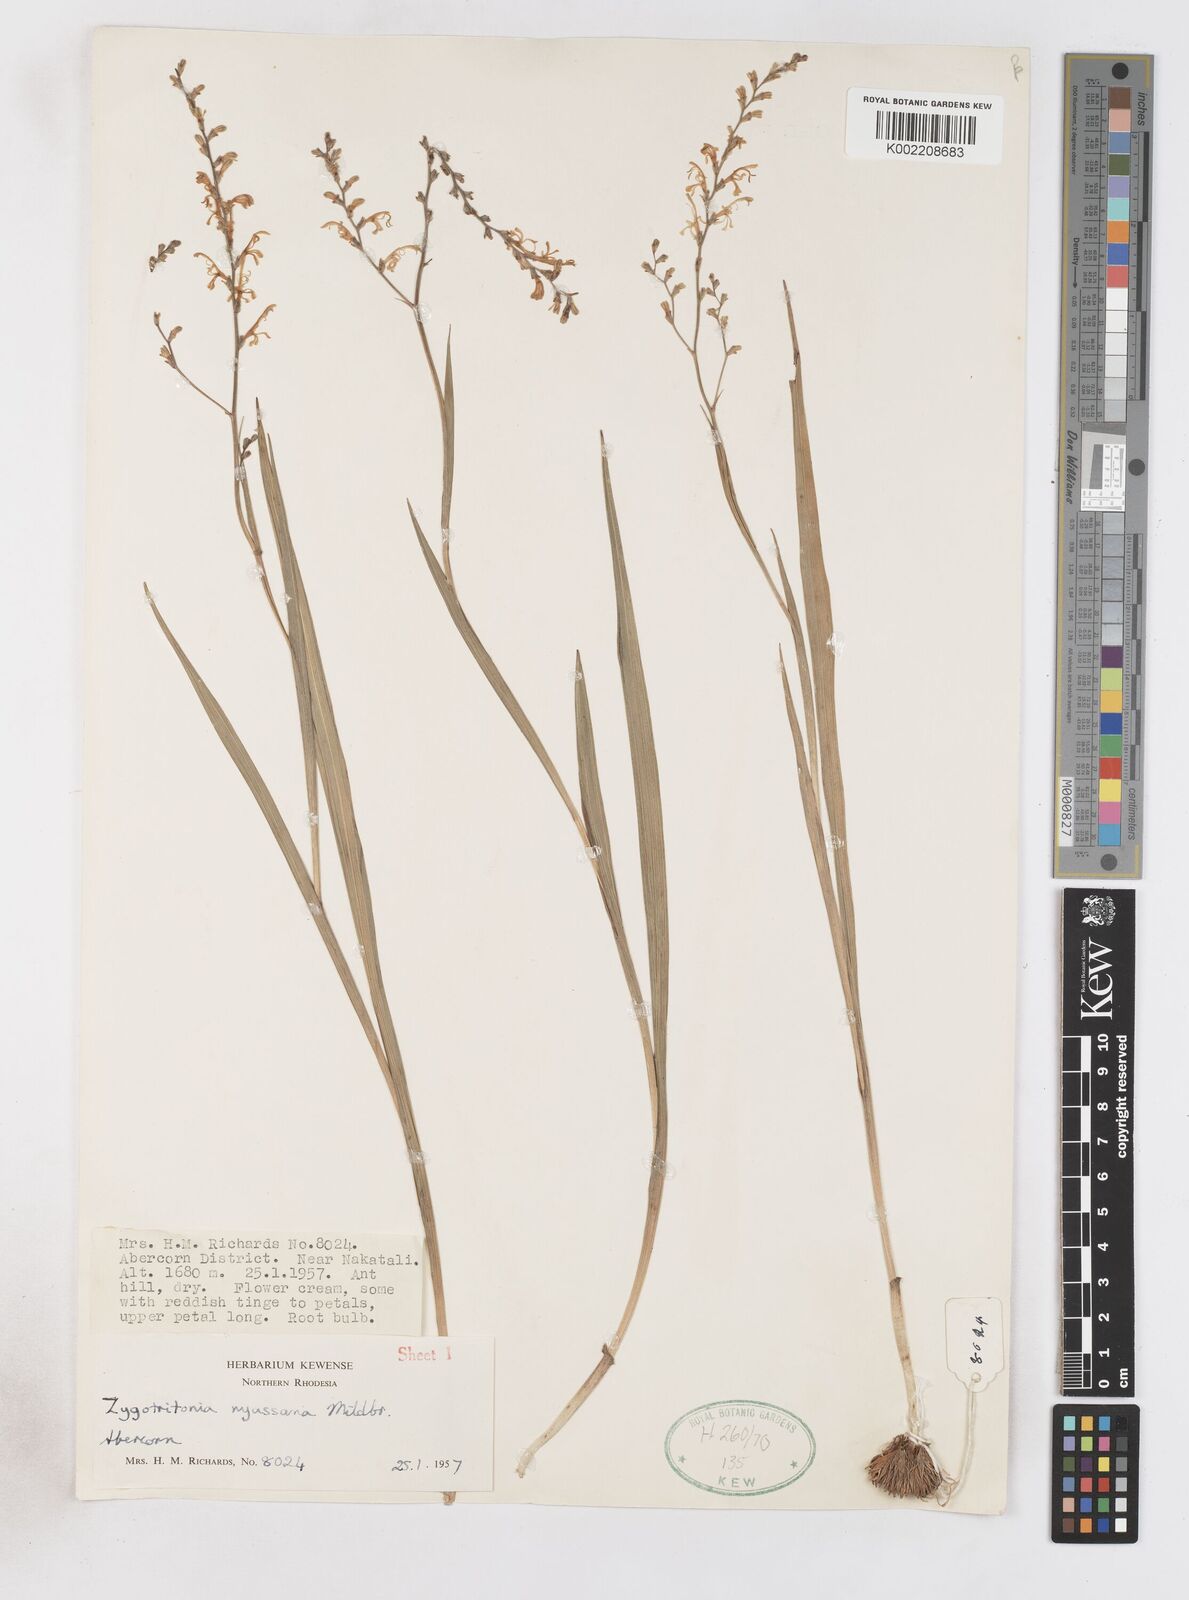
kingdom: Plantae
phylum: Tracheophyta
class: Liliopsida
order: Asparagales
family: Iridaceae
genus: Zygotritonia
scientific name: Zygotritonia nyassana
